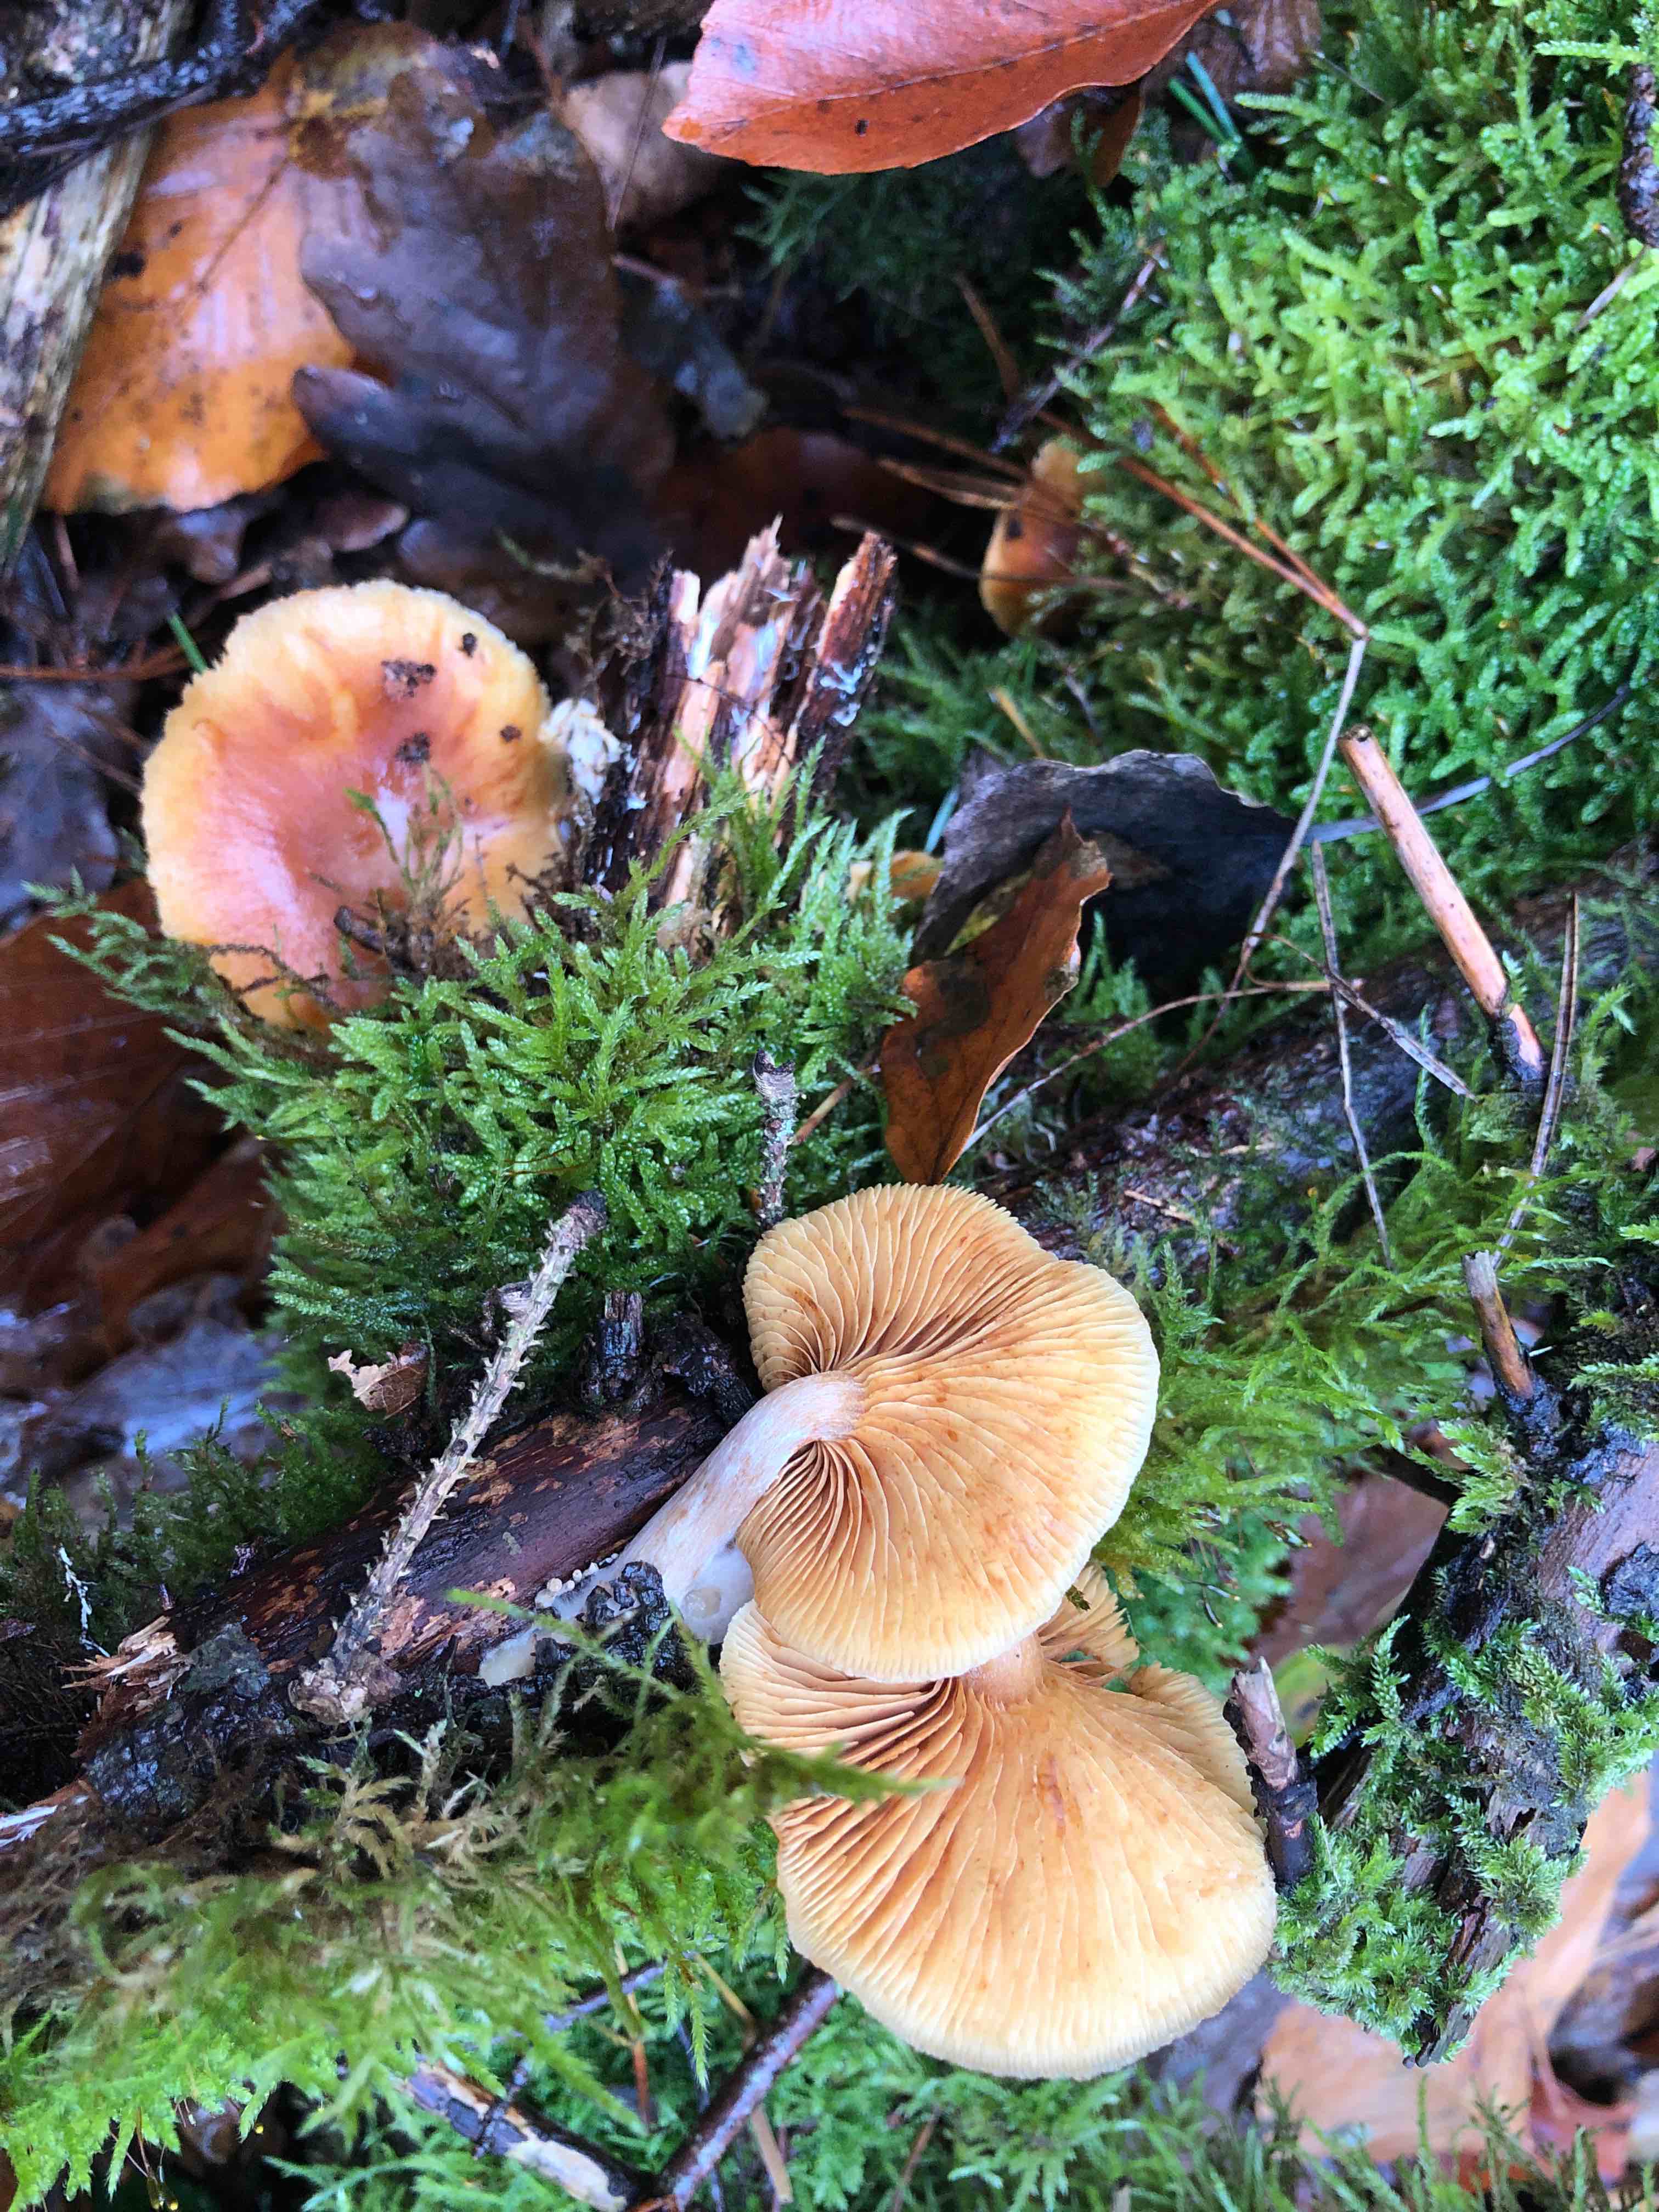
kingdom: Fungi
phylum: Basidiomycota
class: Agaricomycetes
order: Agaricales
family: Hymenogastraceae
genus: Gymnopilus
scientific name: Gymnopilus penetrans
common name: plettet flammehat
